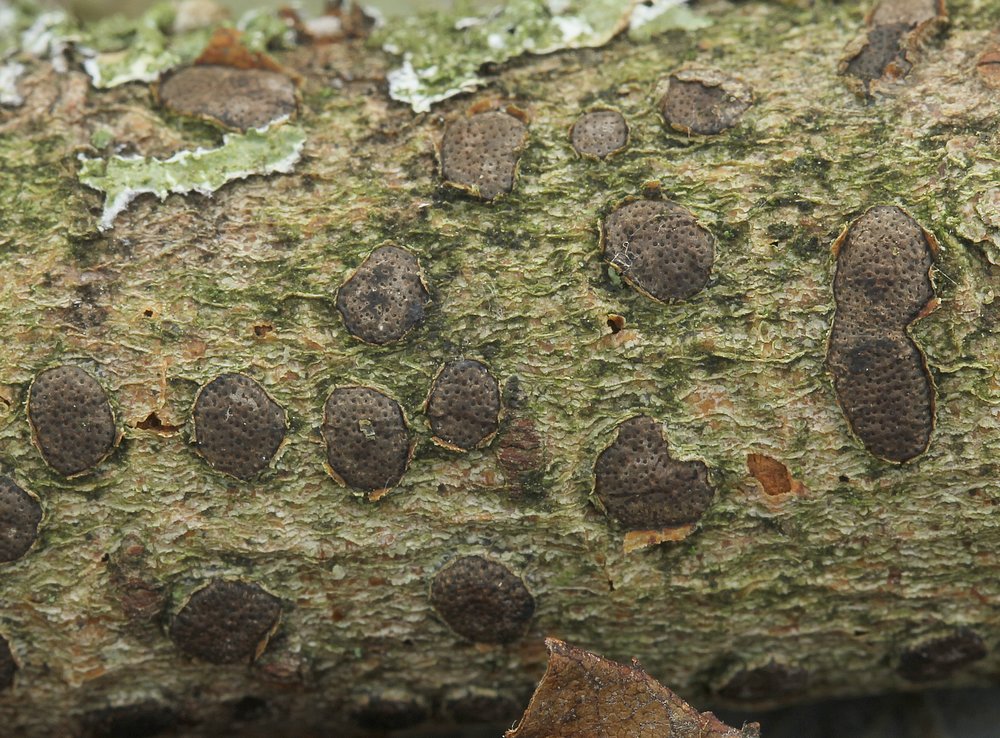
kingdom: Fungi
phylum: Ascomycota
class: Sordariomycetes
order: Xylariales
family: Diatrypaceae
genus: Diatrype
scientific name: Diatrype bullata
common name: pile-kulskorpe
